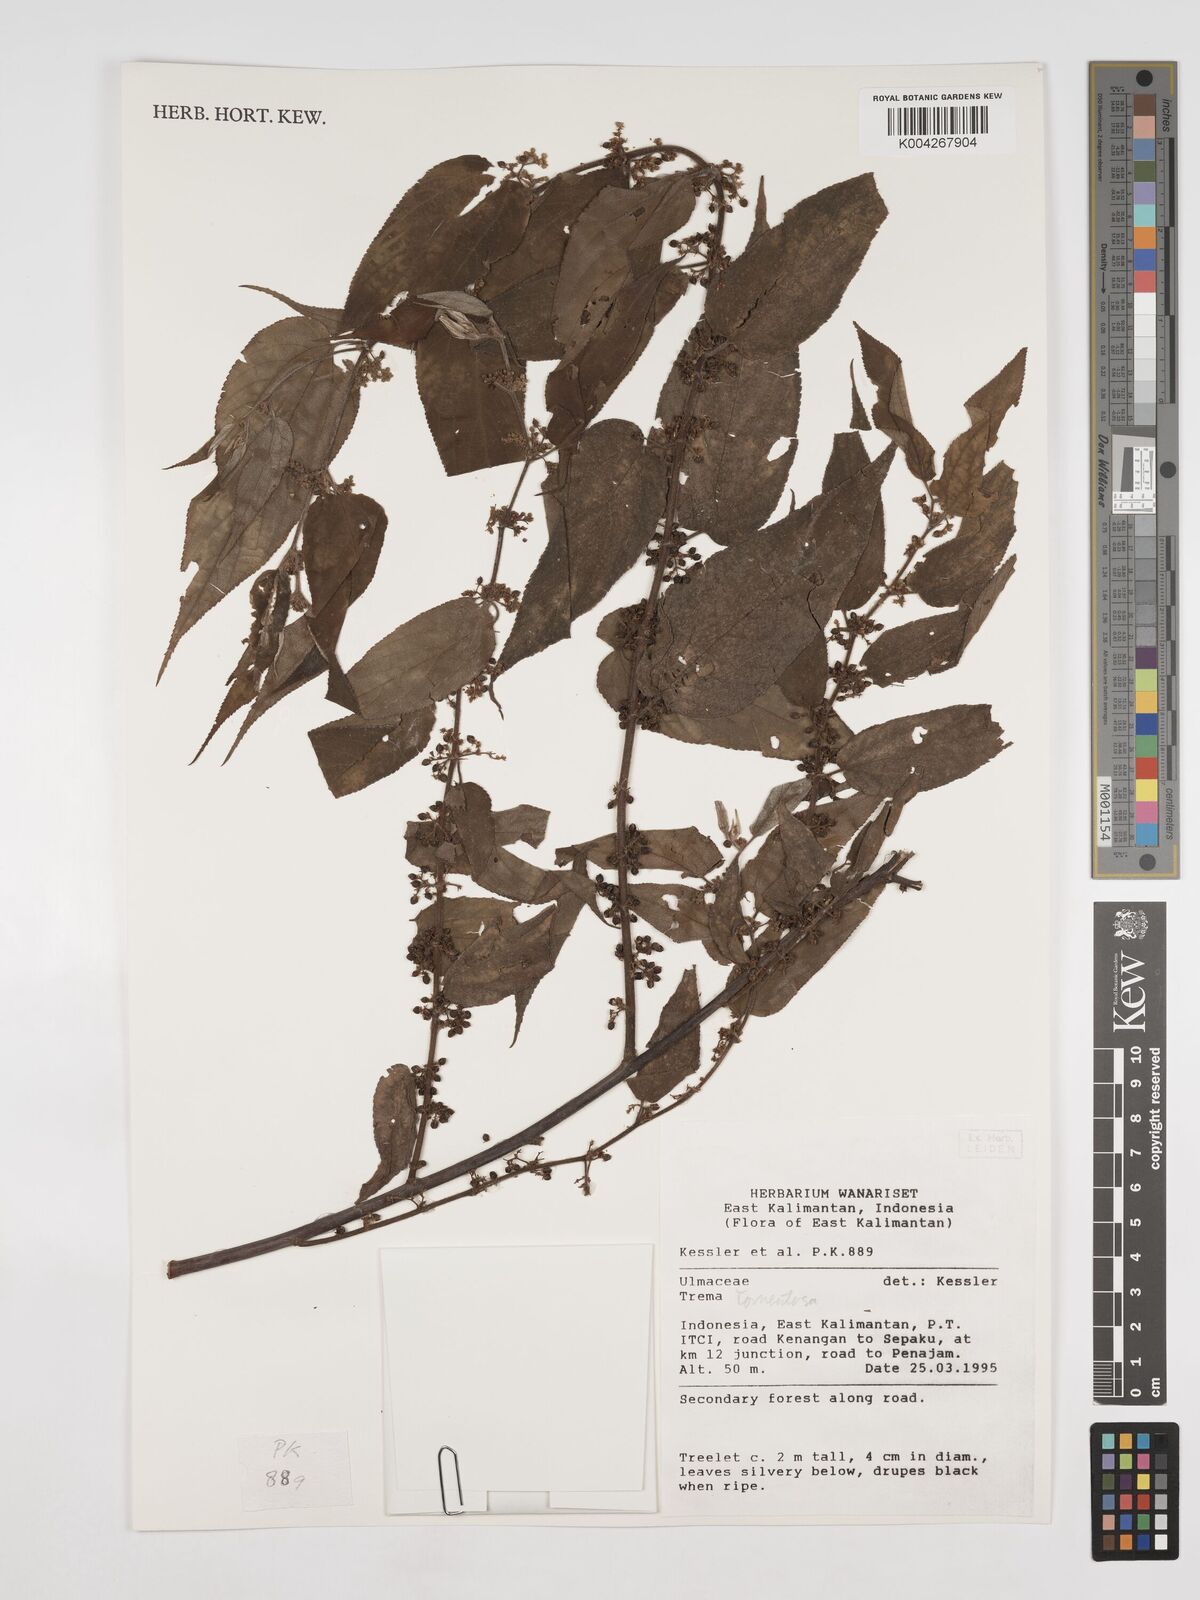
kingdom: Plantae
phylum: Tracheophyta
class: Magnoliopsida
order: Rosales
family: Cannabaceae
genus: Trema
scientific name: Trema tomentosum
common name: Peach-leaf-poisonbush
